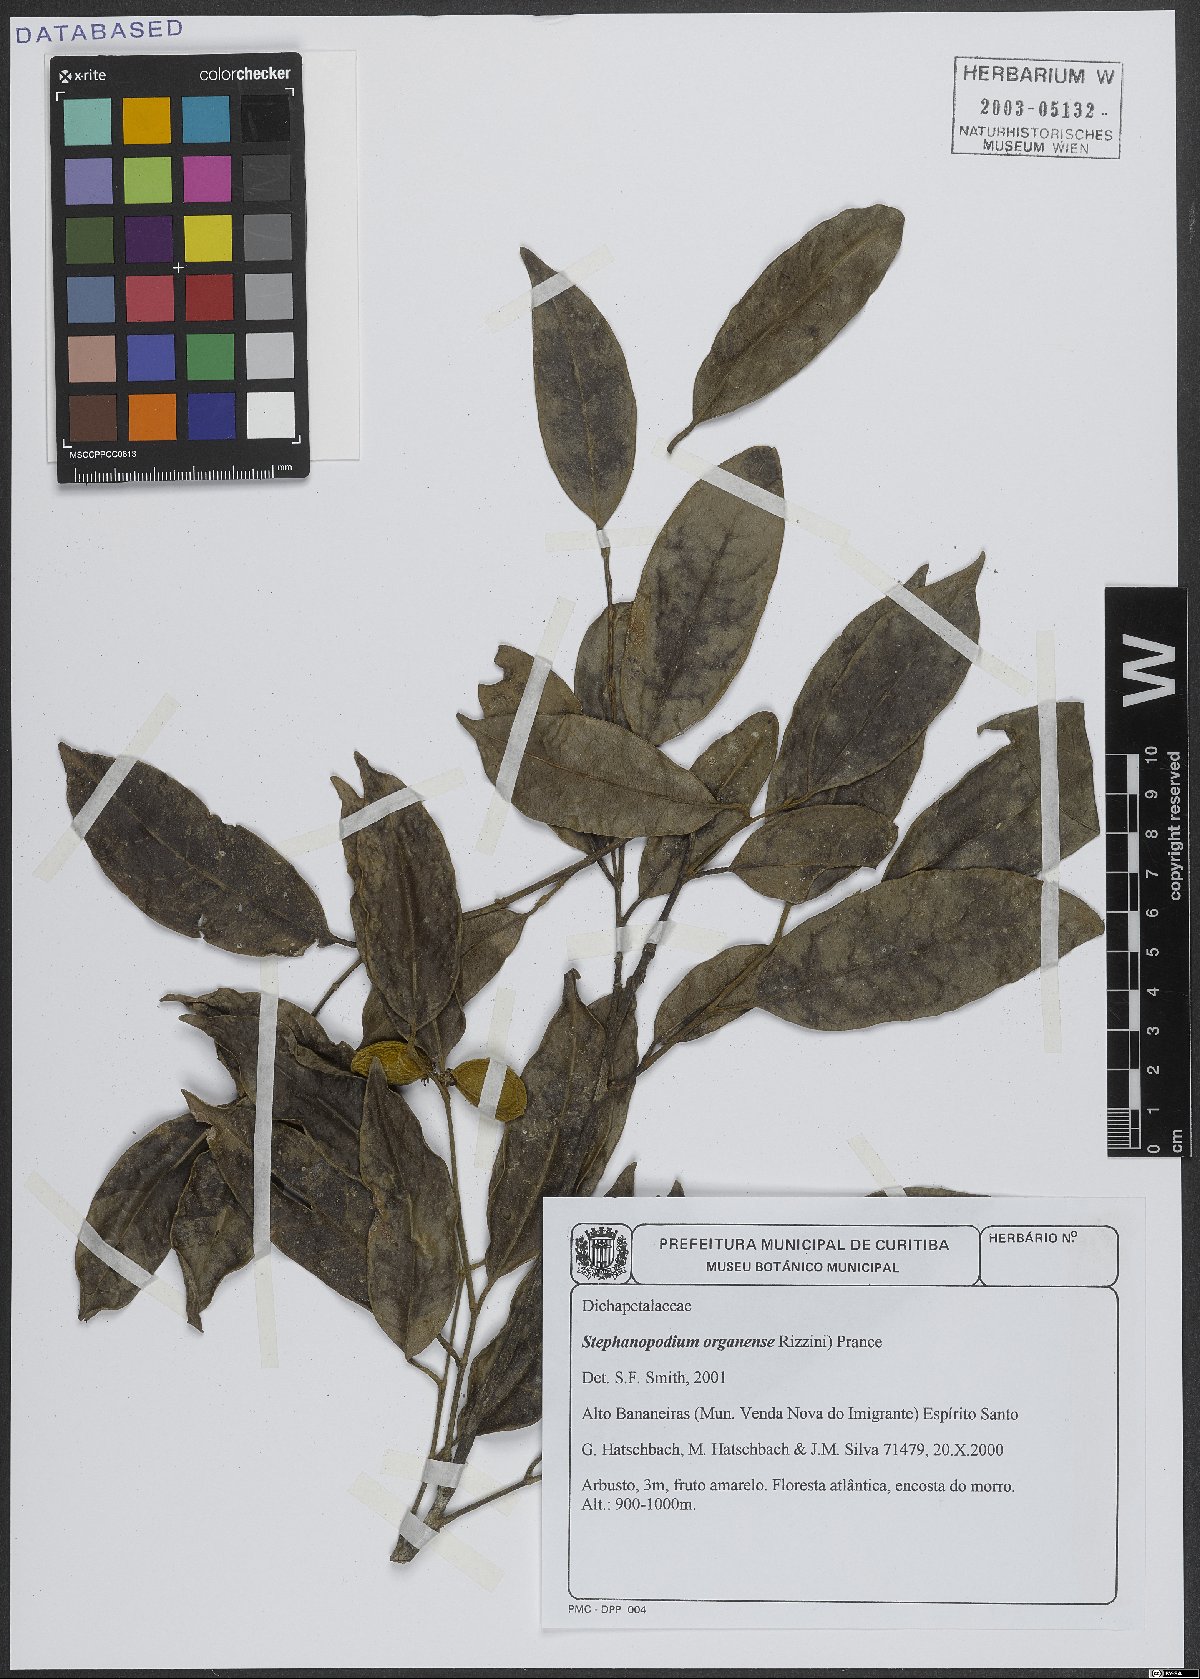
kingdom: Plantae
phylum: Tracheophyta
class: Magnoliopsida
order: Malpighiales
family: Dichapetalaceae
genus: Stephanopodium
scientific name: Stephanopodium organense
